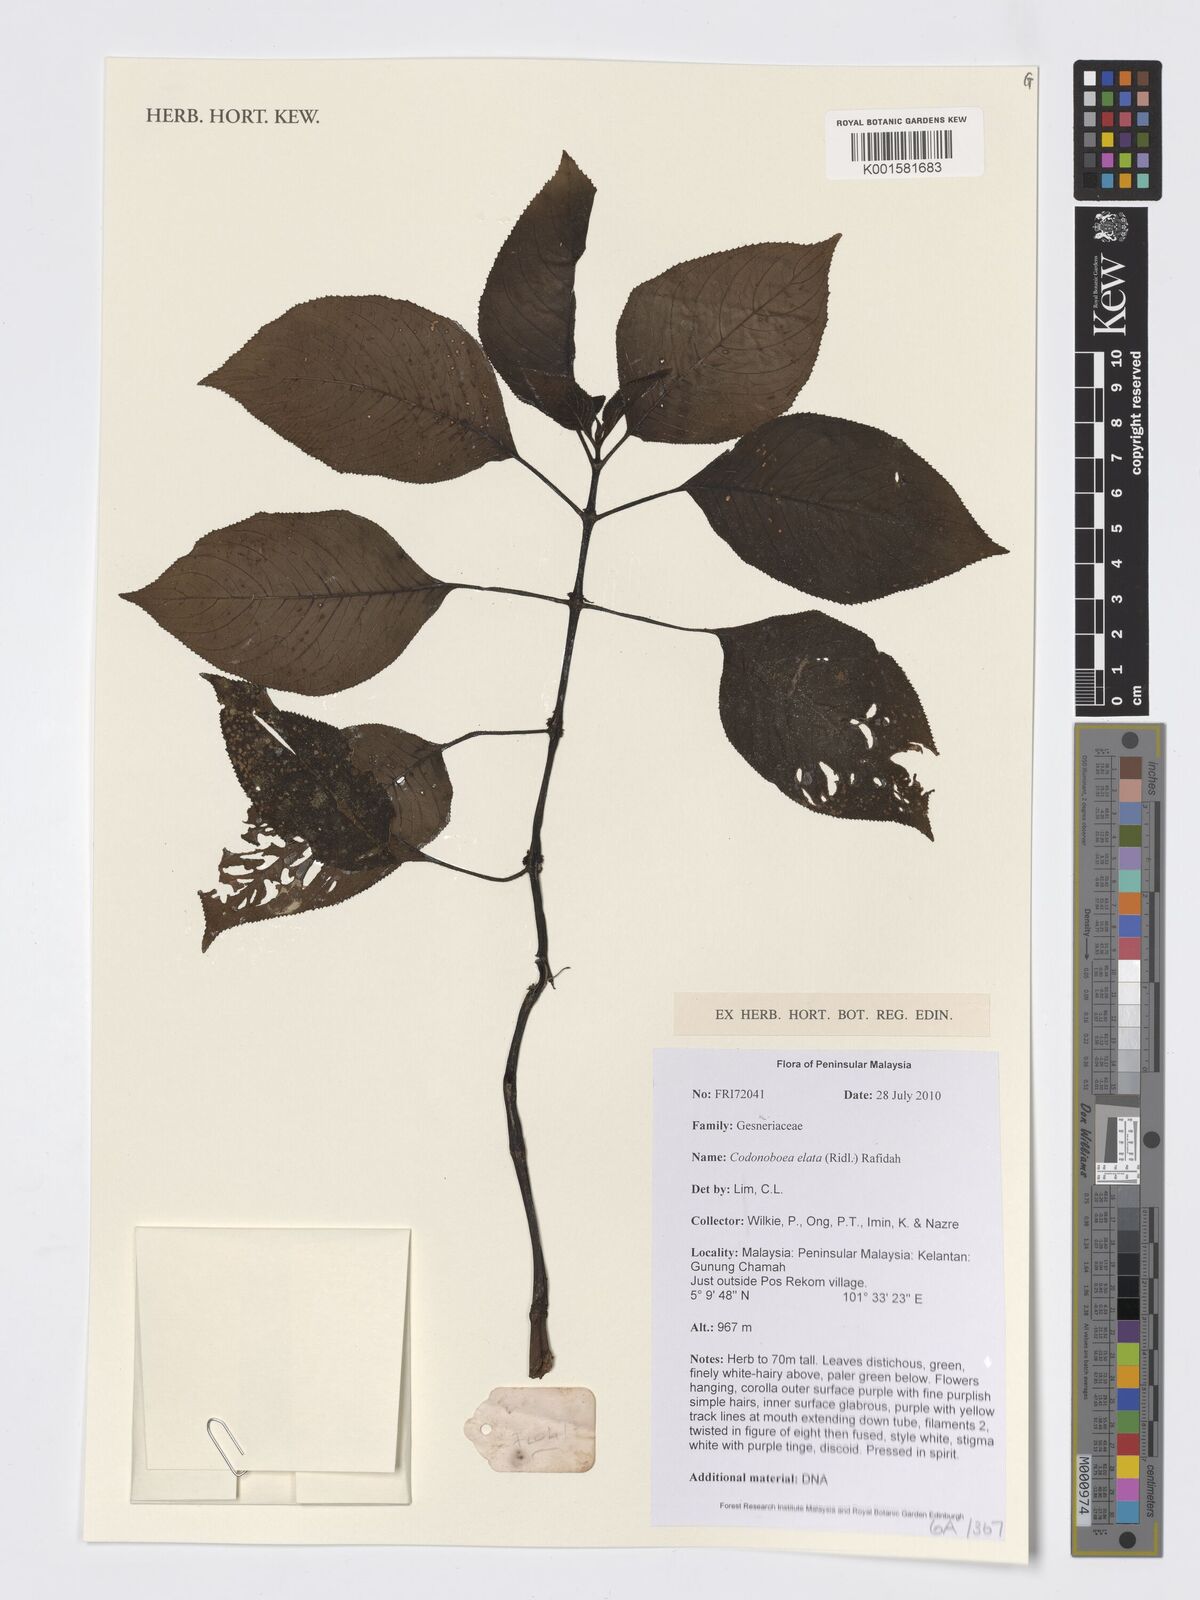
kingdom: Plantae
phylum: Tracheophyta
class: Magnoliopsida
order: Lamiales
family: Gesneriaceae
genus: Codonoboea
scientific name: Codonoboea elata
